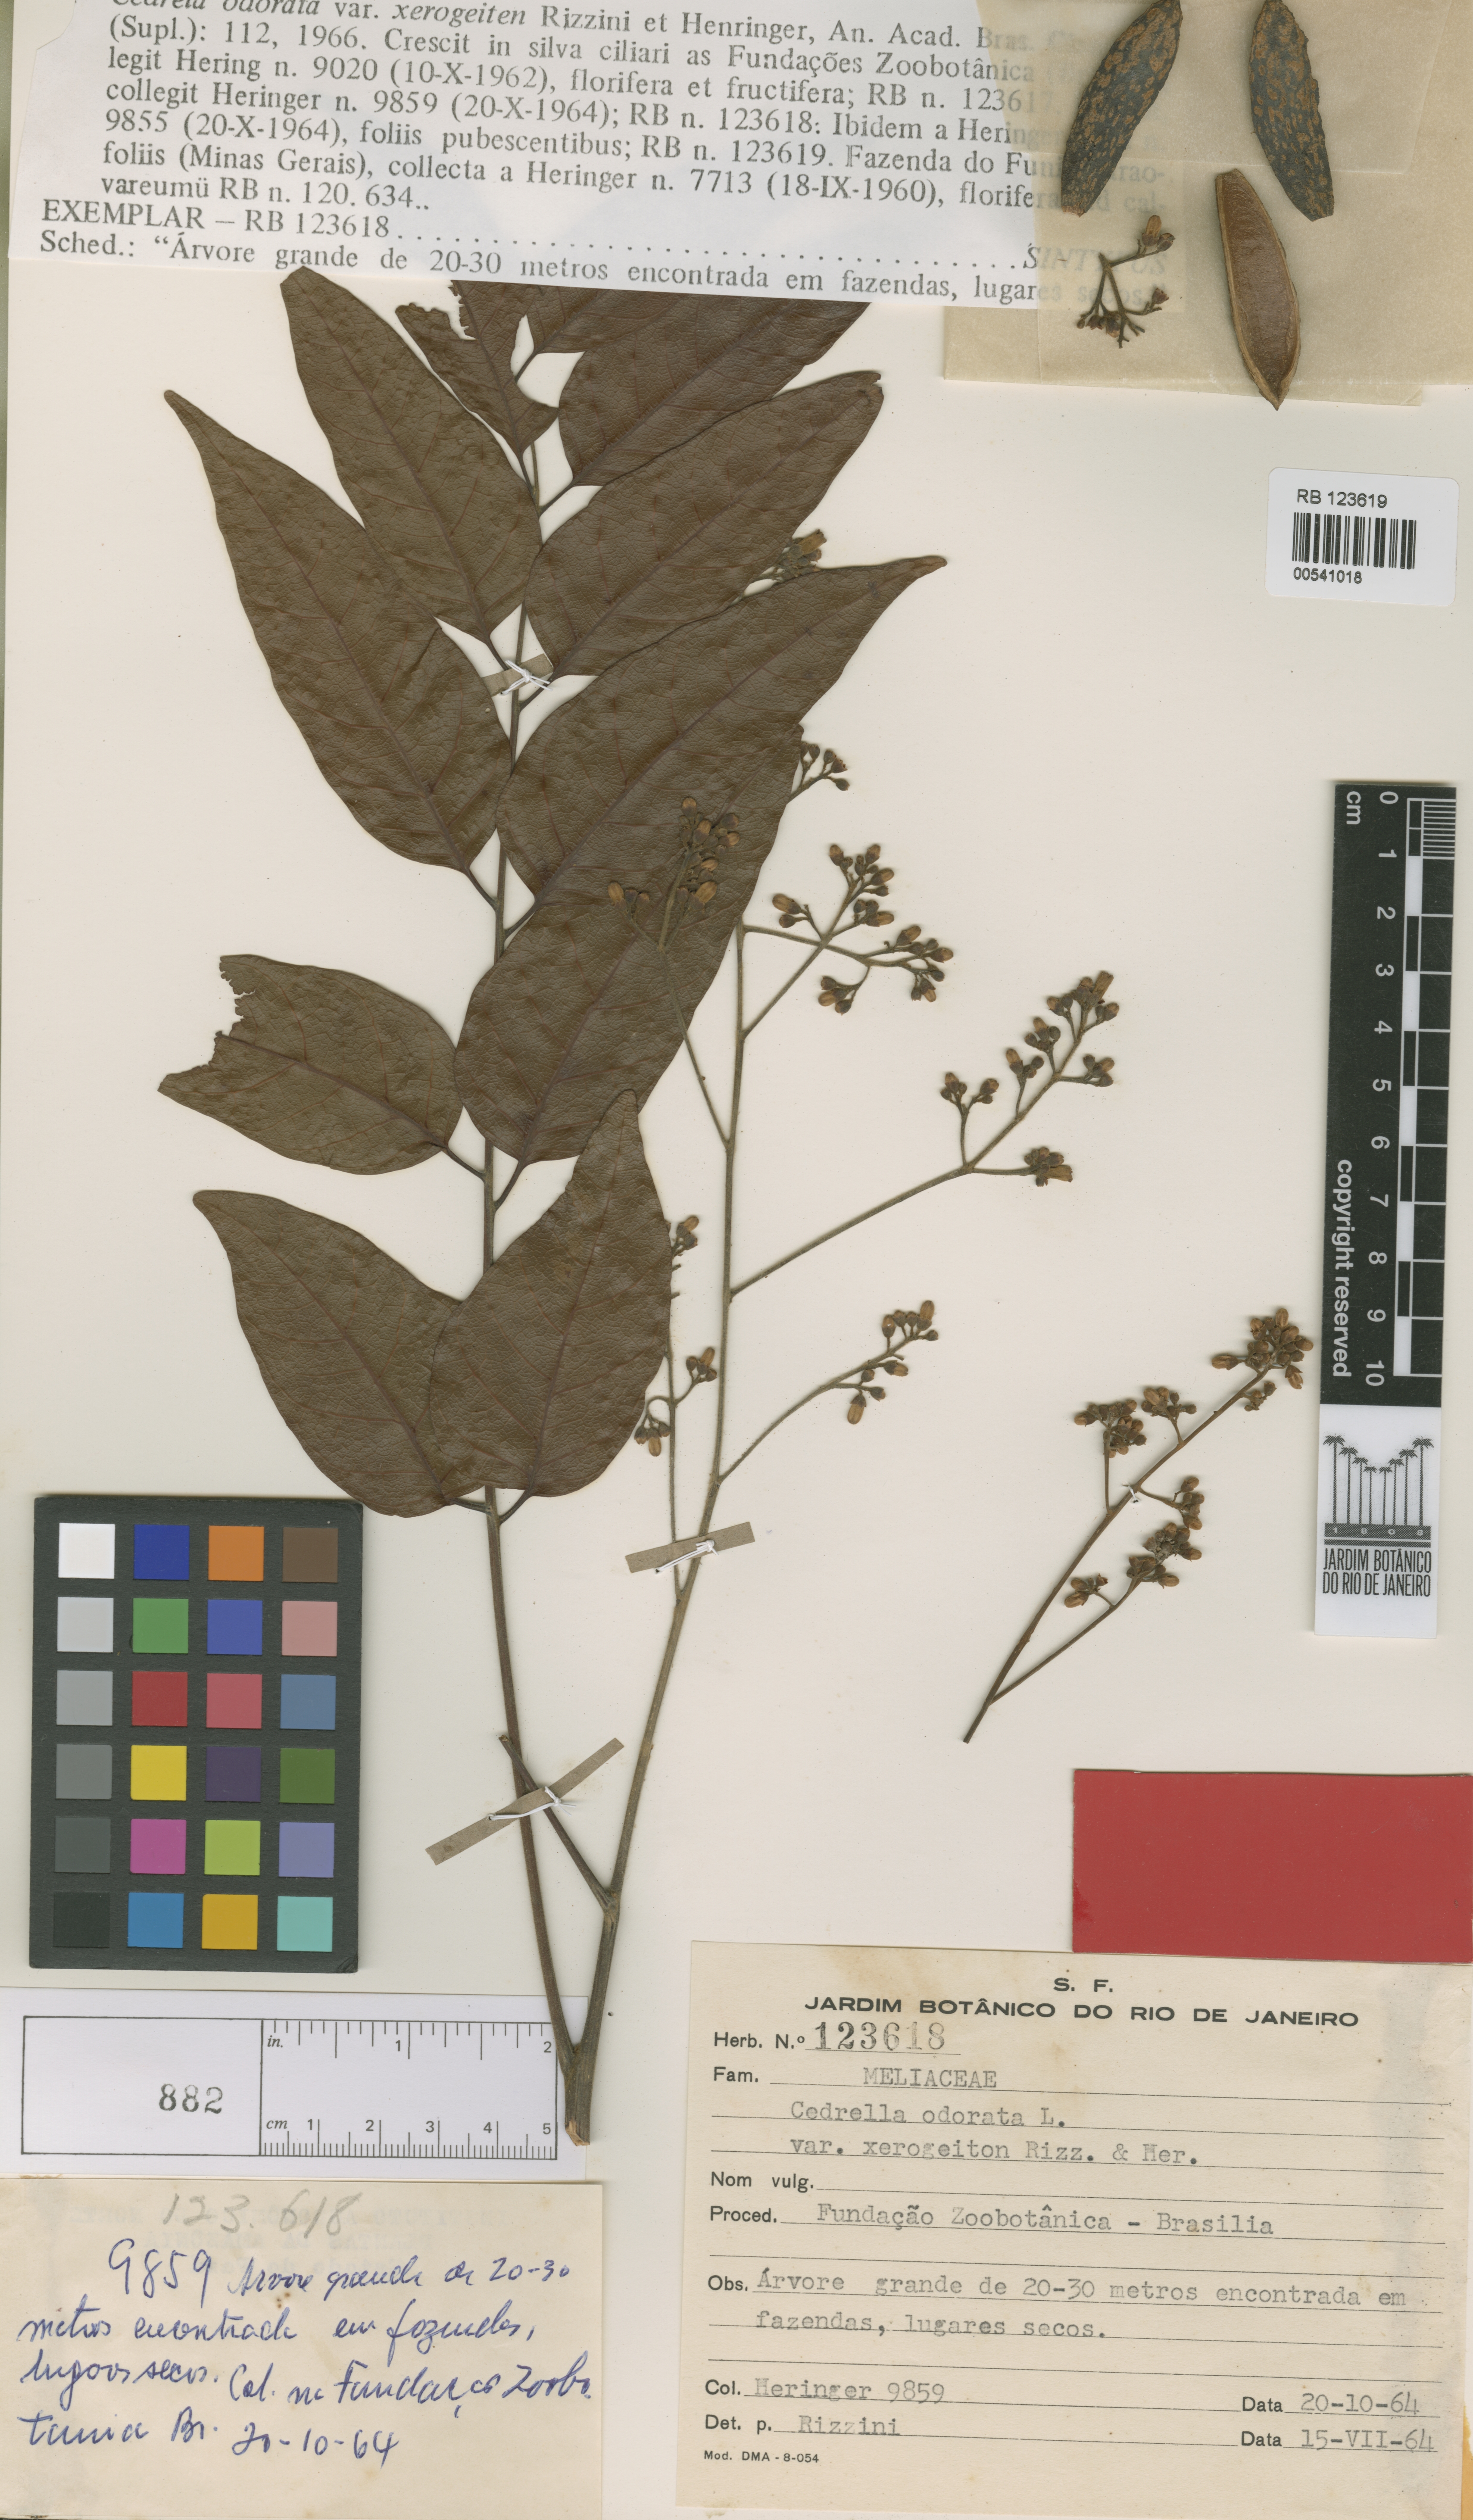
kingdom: Plantae
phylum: Tracheophyta
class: Magnoliopsida
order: Sapindales
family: Meliaceae
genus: Cedrela
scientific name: Cedrela odorata
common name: Red cedar
